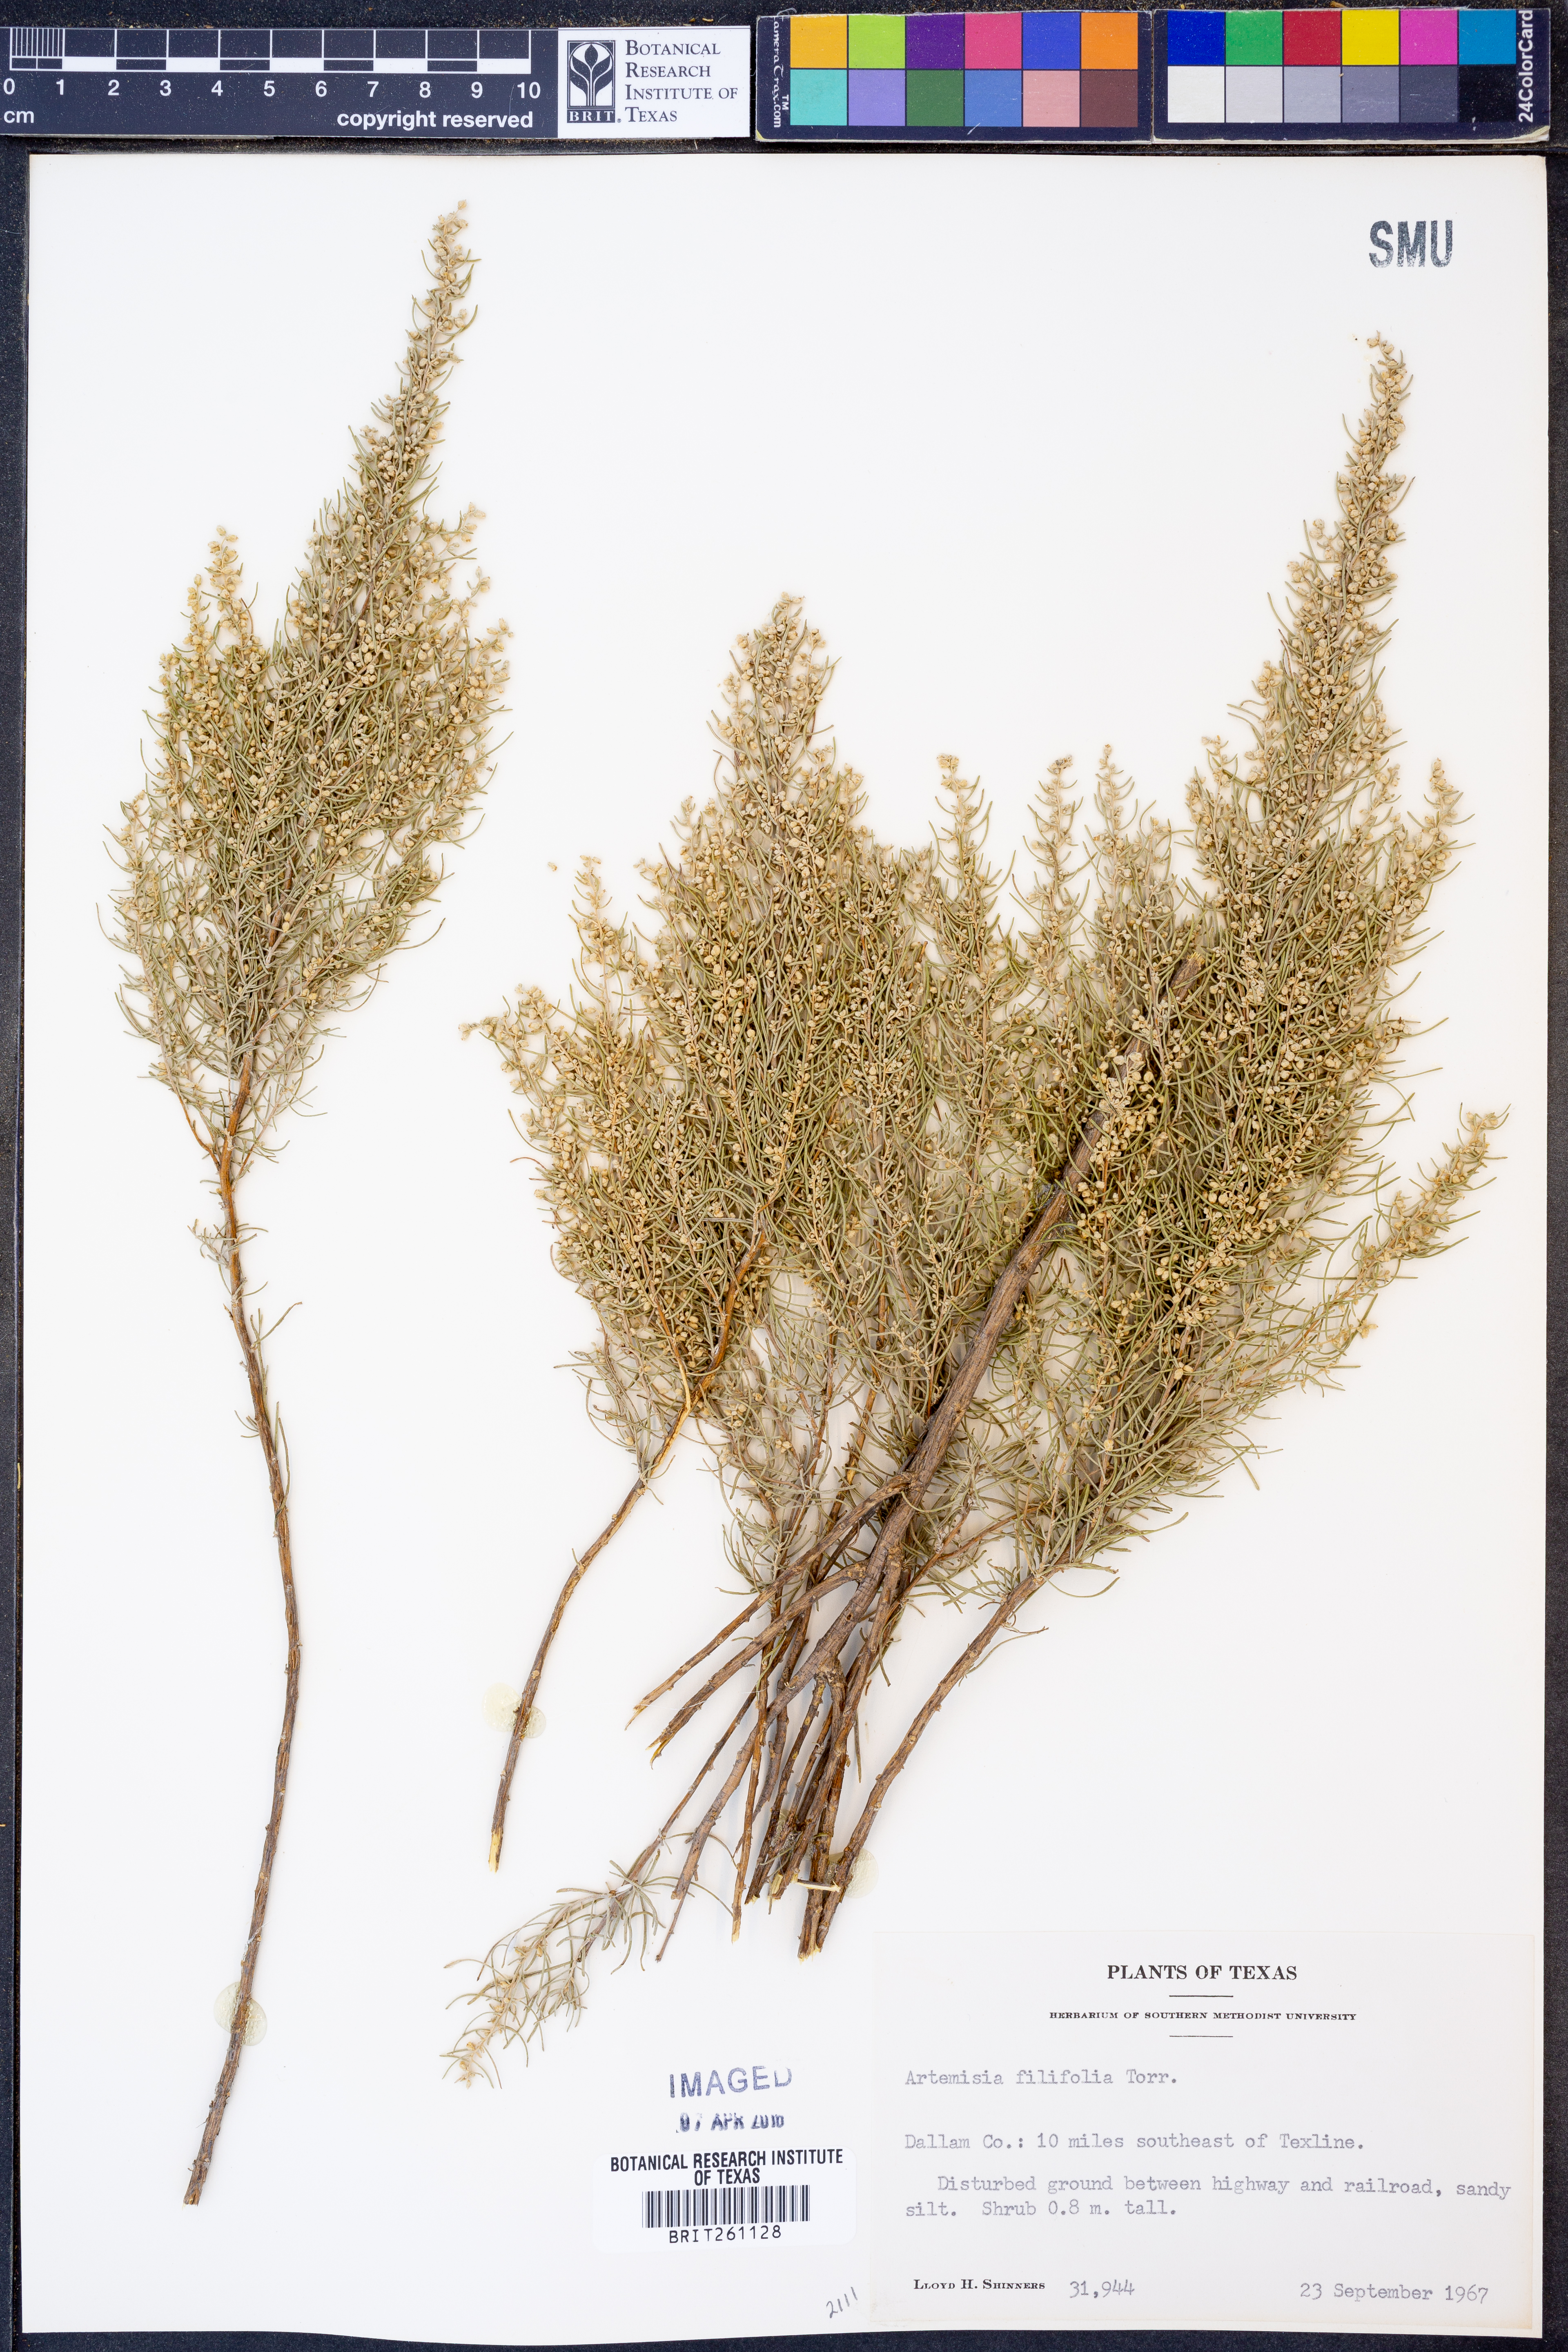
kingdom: Plantae
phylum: Tracheophyta
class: Magnoliopsida
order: Asterales
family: Asteraceae
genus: Artemisia
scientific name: Artemisia filifolia
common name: Sand-sage
